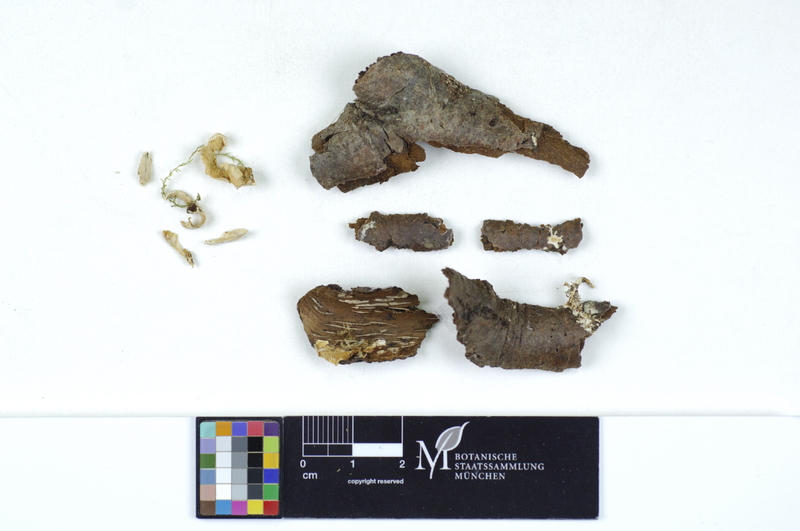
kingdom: Fungi
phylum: Basidiomycota
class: Agaricomycetes
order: Polyporales
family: Steccherinaceae
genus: Antrodiella
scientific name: Antrodiella semisupina
